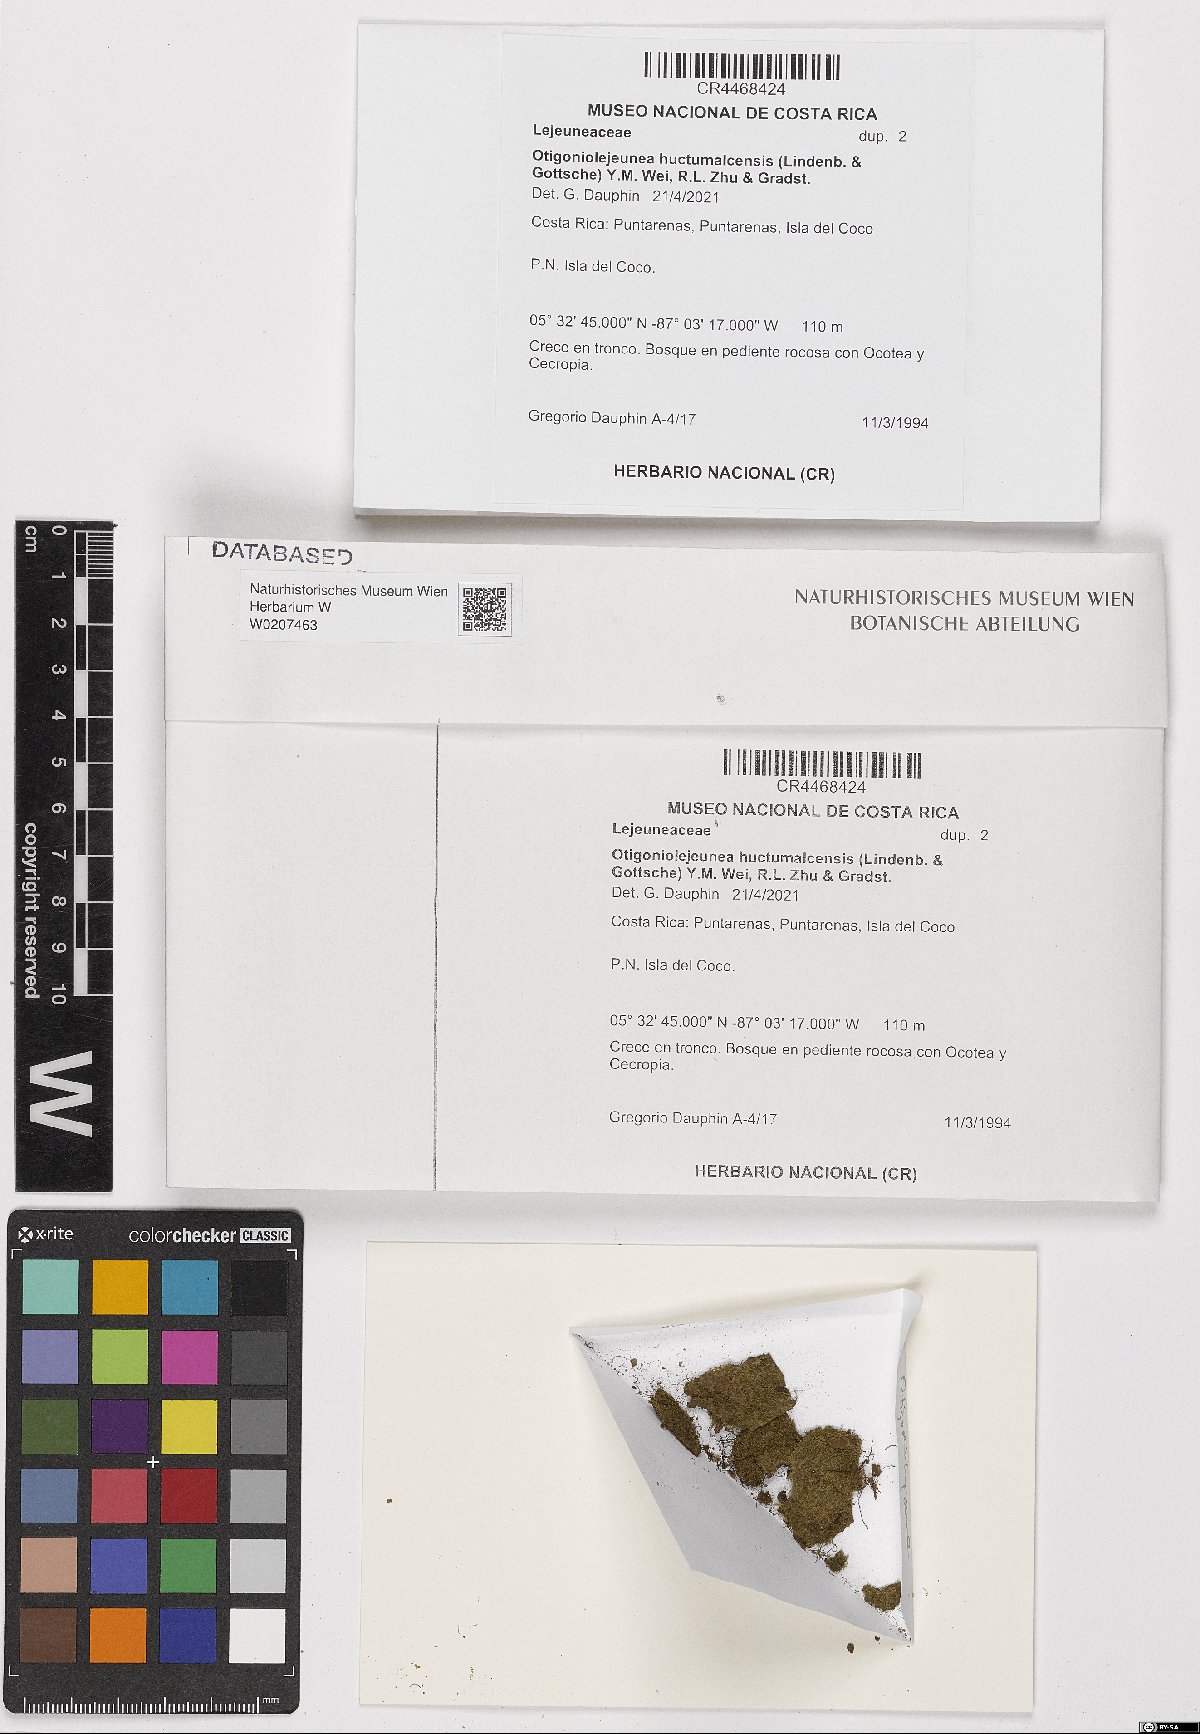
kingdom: Plantae
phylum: Marchantiophyta
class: Jungermanniopsida
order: Porellales
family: Lejeuneaceae
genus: Otigoniolejeunea
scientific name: Otigoniolejeunea huctumalcensis
